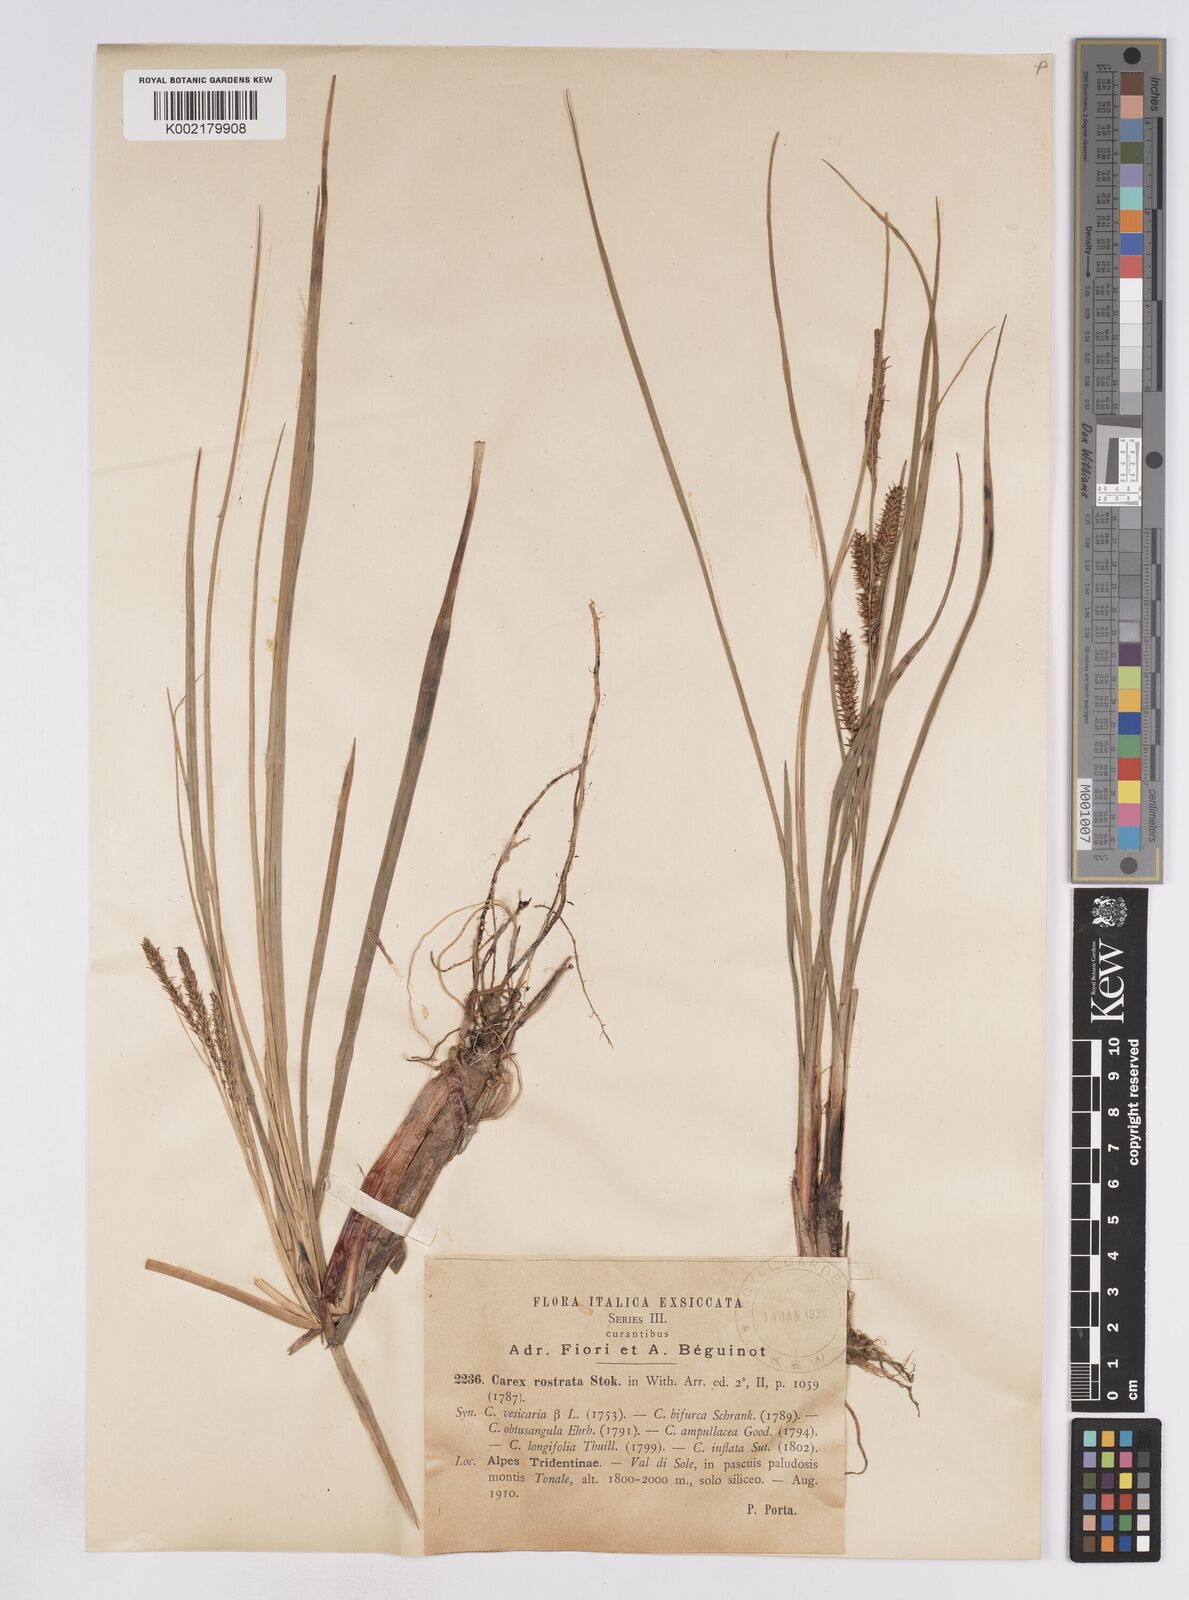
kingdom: Plantae
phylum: Tracheophyta
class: Liliopsida
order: Poales
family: Cyperaceae
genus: Carex
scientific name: Carex rostrata
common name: Bottle sedge
